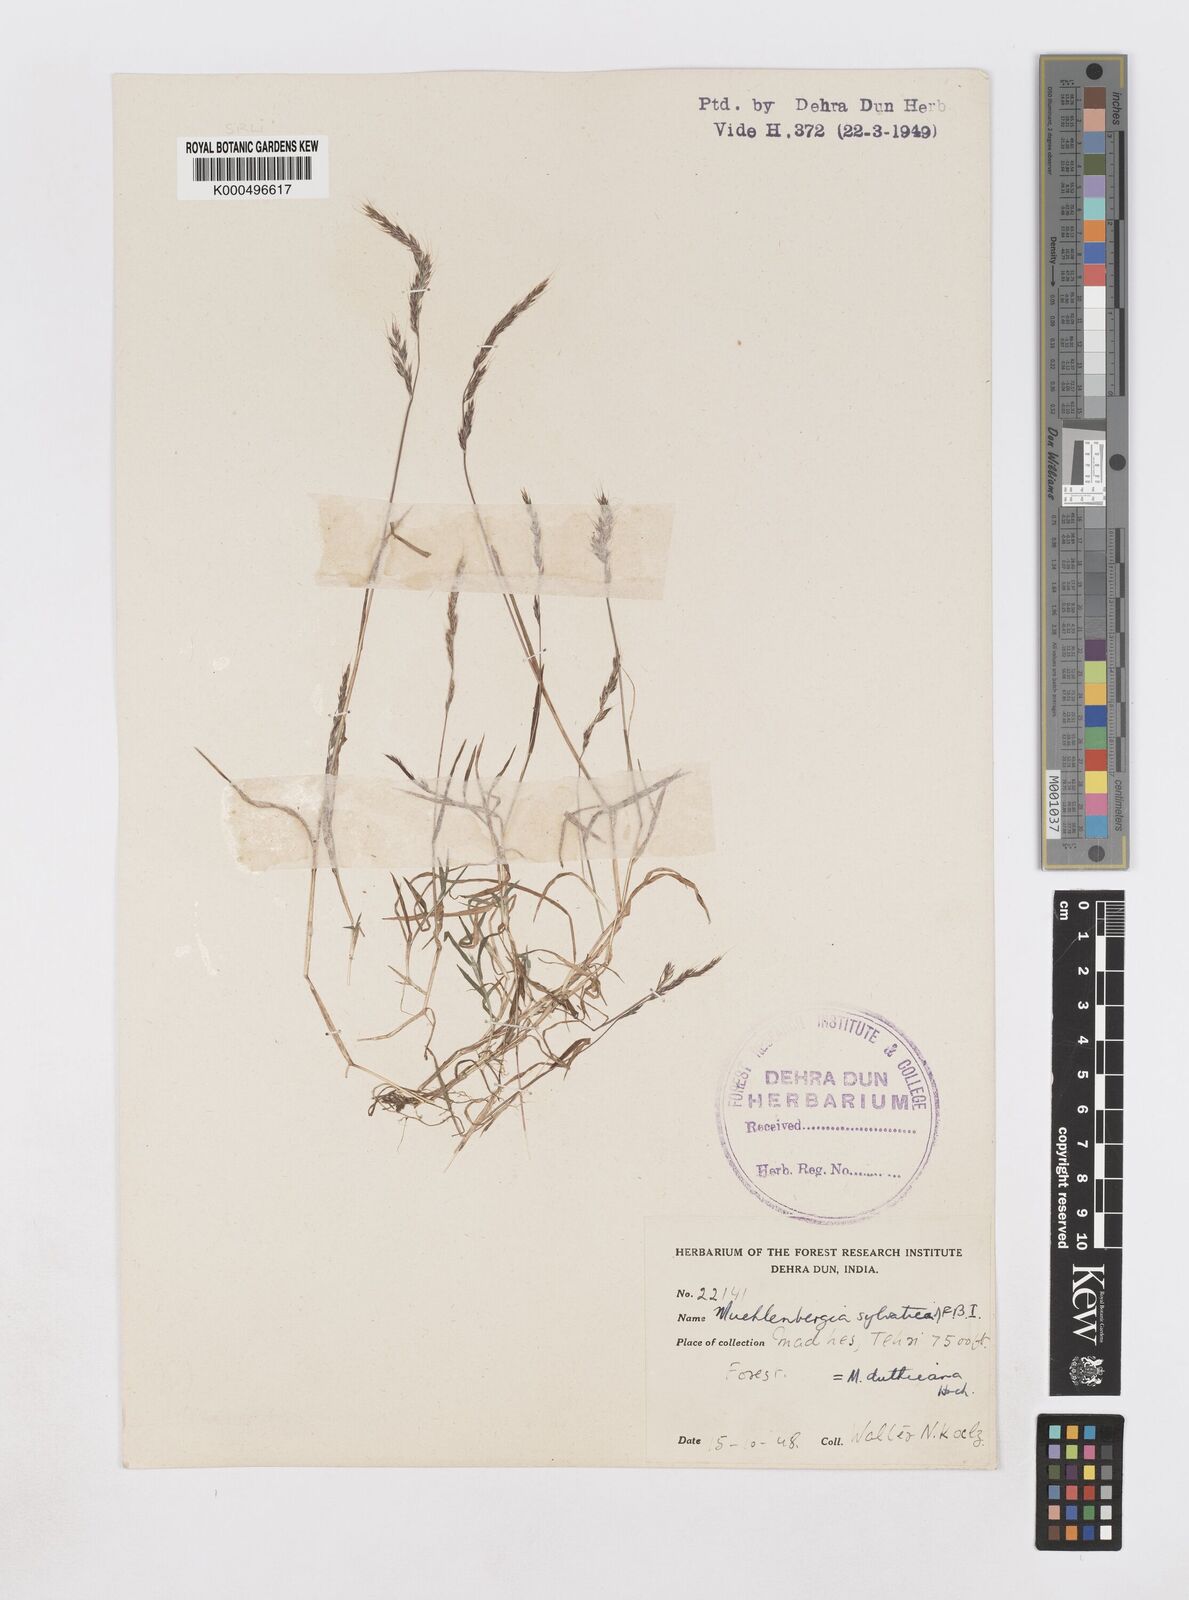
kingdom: Plantae
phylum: Tracheophyta
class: Liliopsida
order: Poales
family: Poaceae
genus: Muhlenbergia
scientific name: Muhlenbergia duthieana
